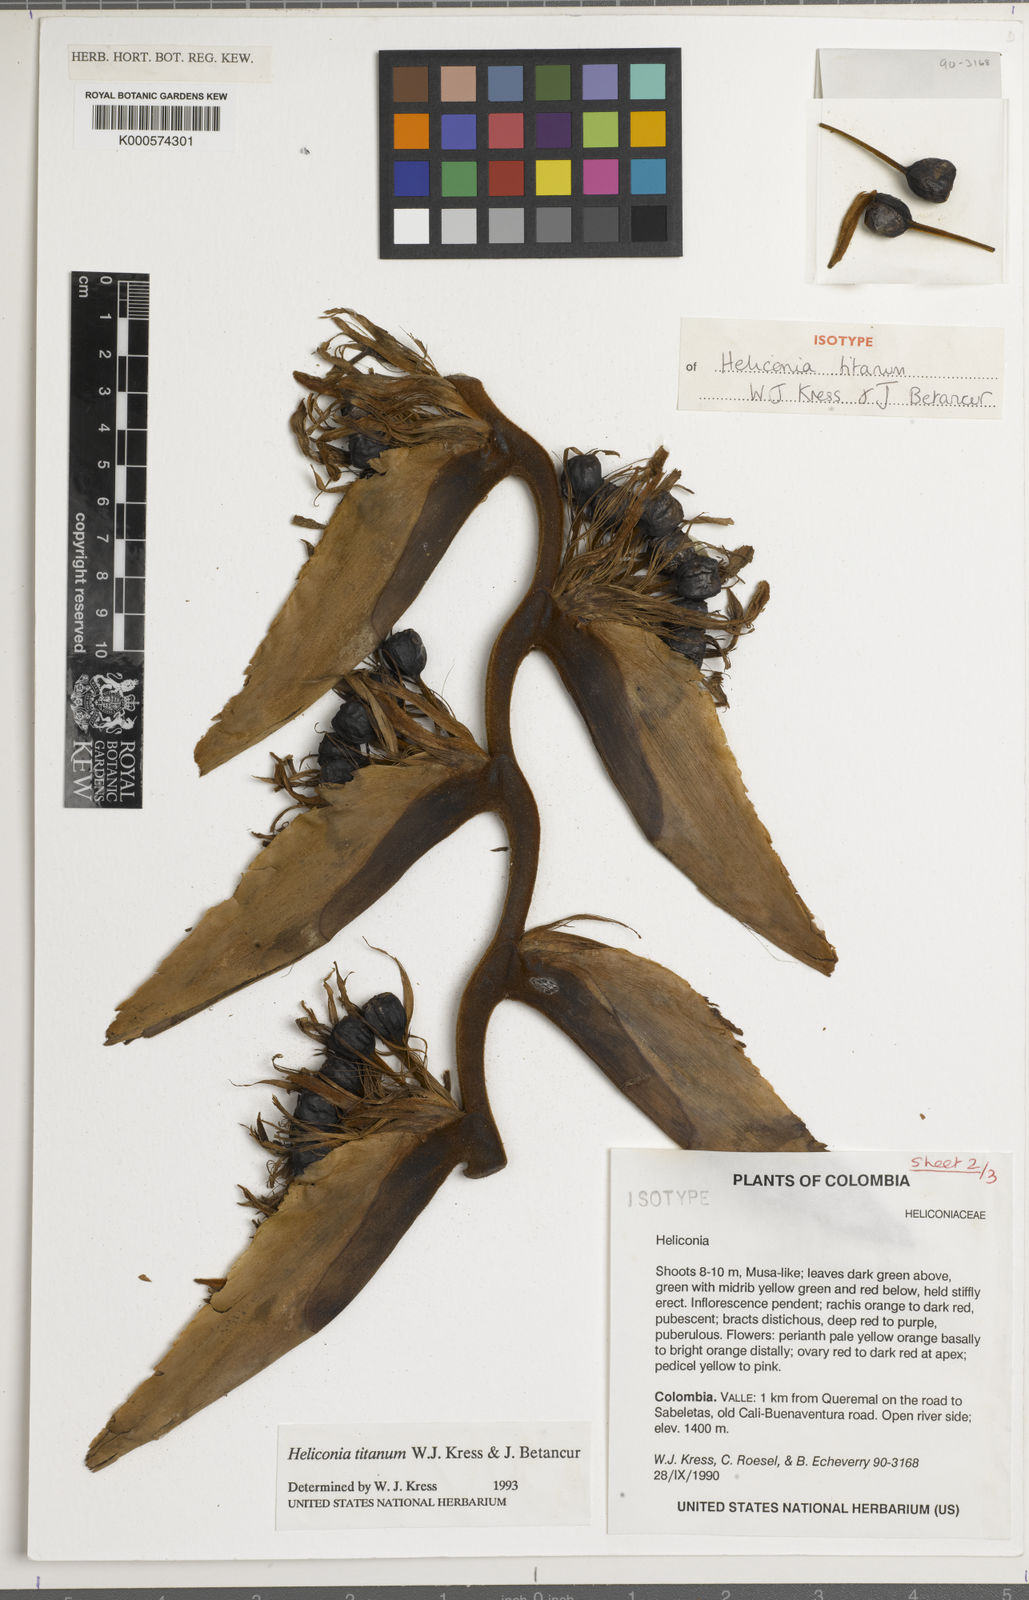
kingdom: Plantae
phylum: Tracheophyta
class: Liliopsida
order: Zingiberales
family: Heliconiaceae
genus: Heliconia
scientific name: Heliconia titanum
